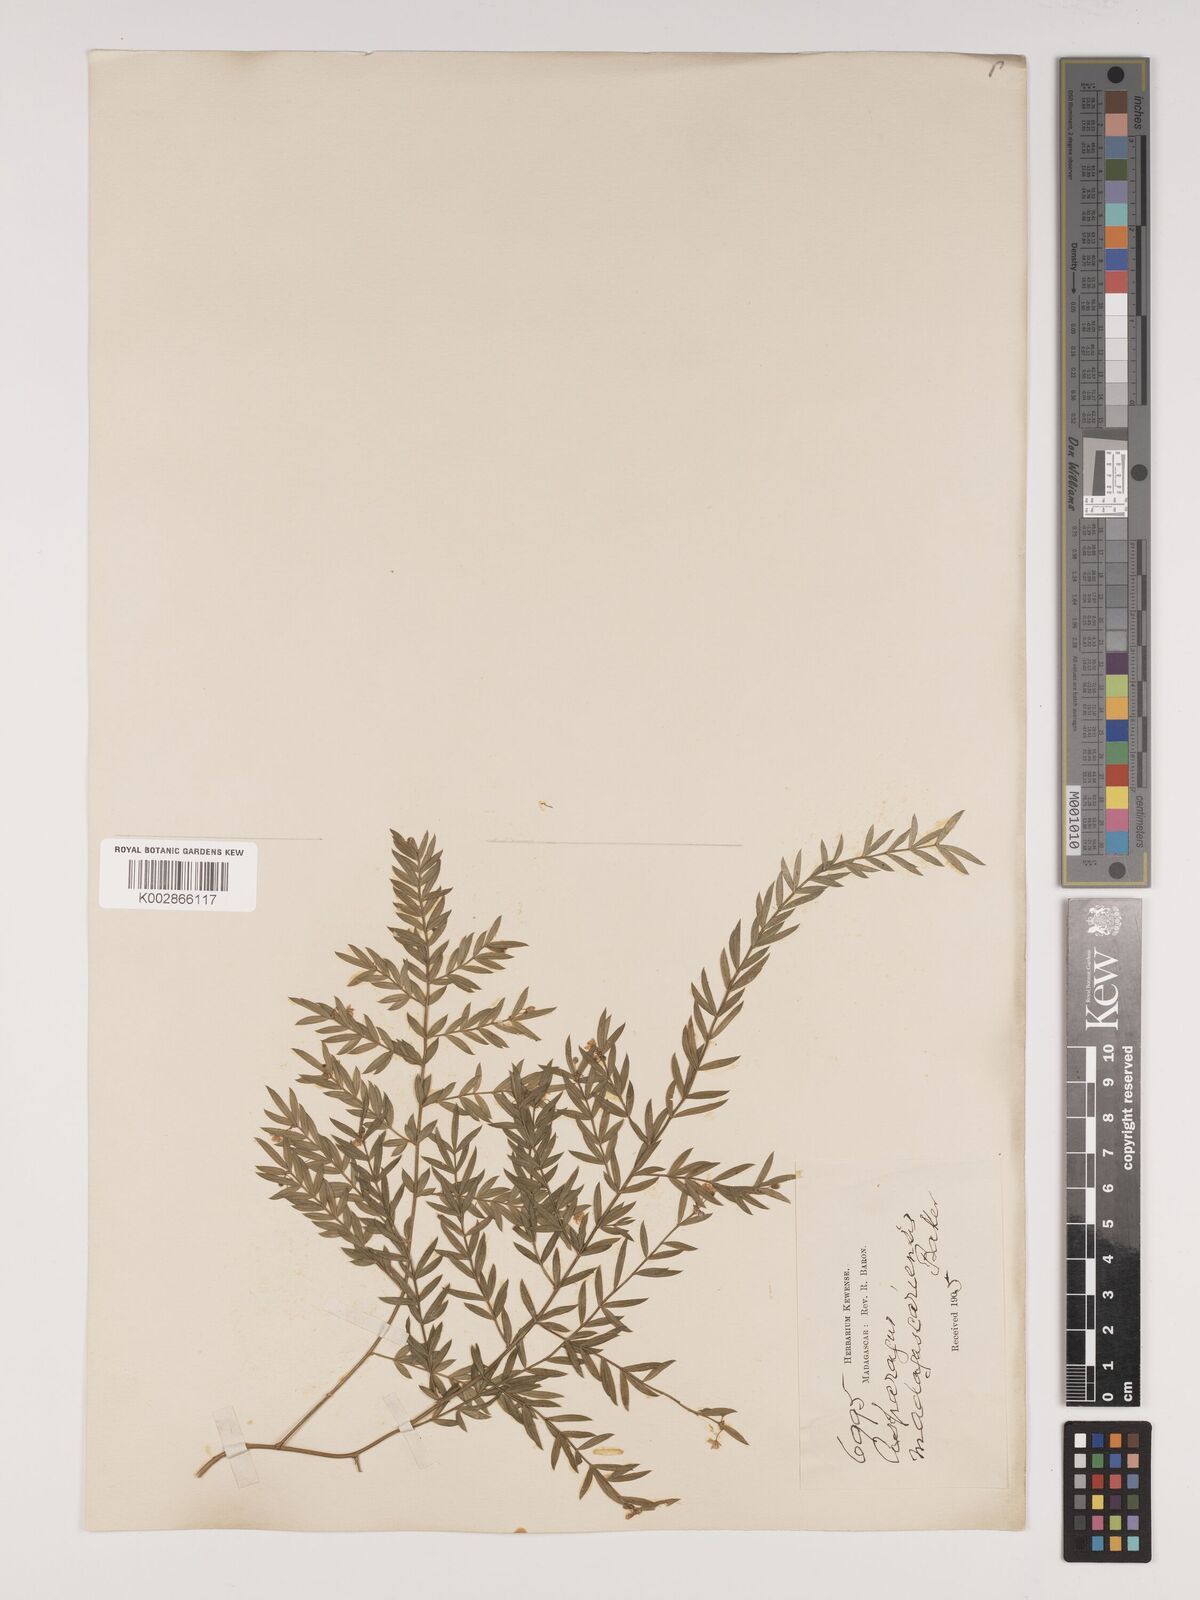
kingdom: Plantae
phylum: Tracheophyta
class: Liliopsida
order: Asparagales
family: Asparagaceae
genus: Asparagus
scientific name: Asparagus simulans
